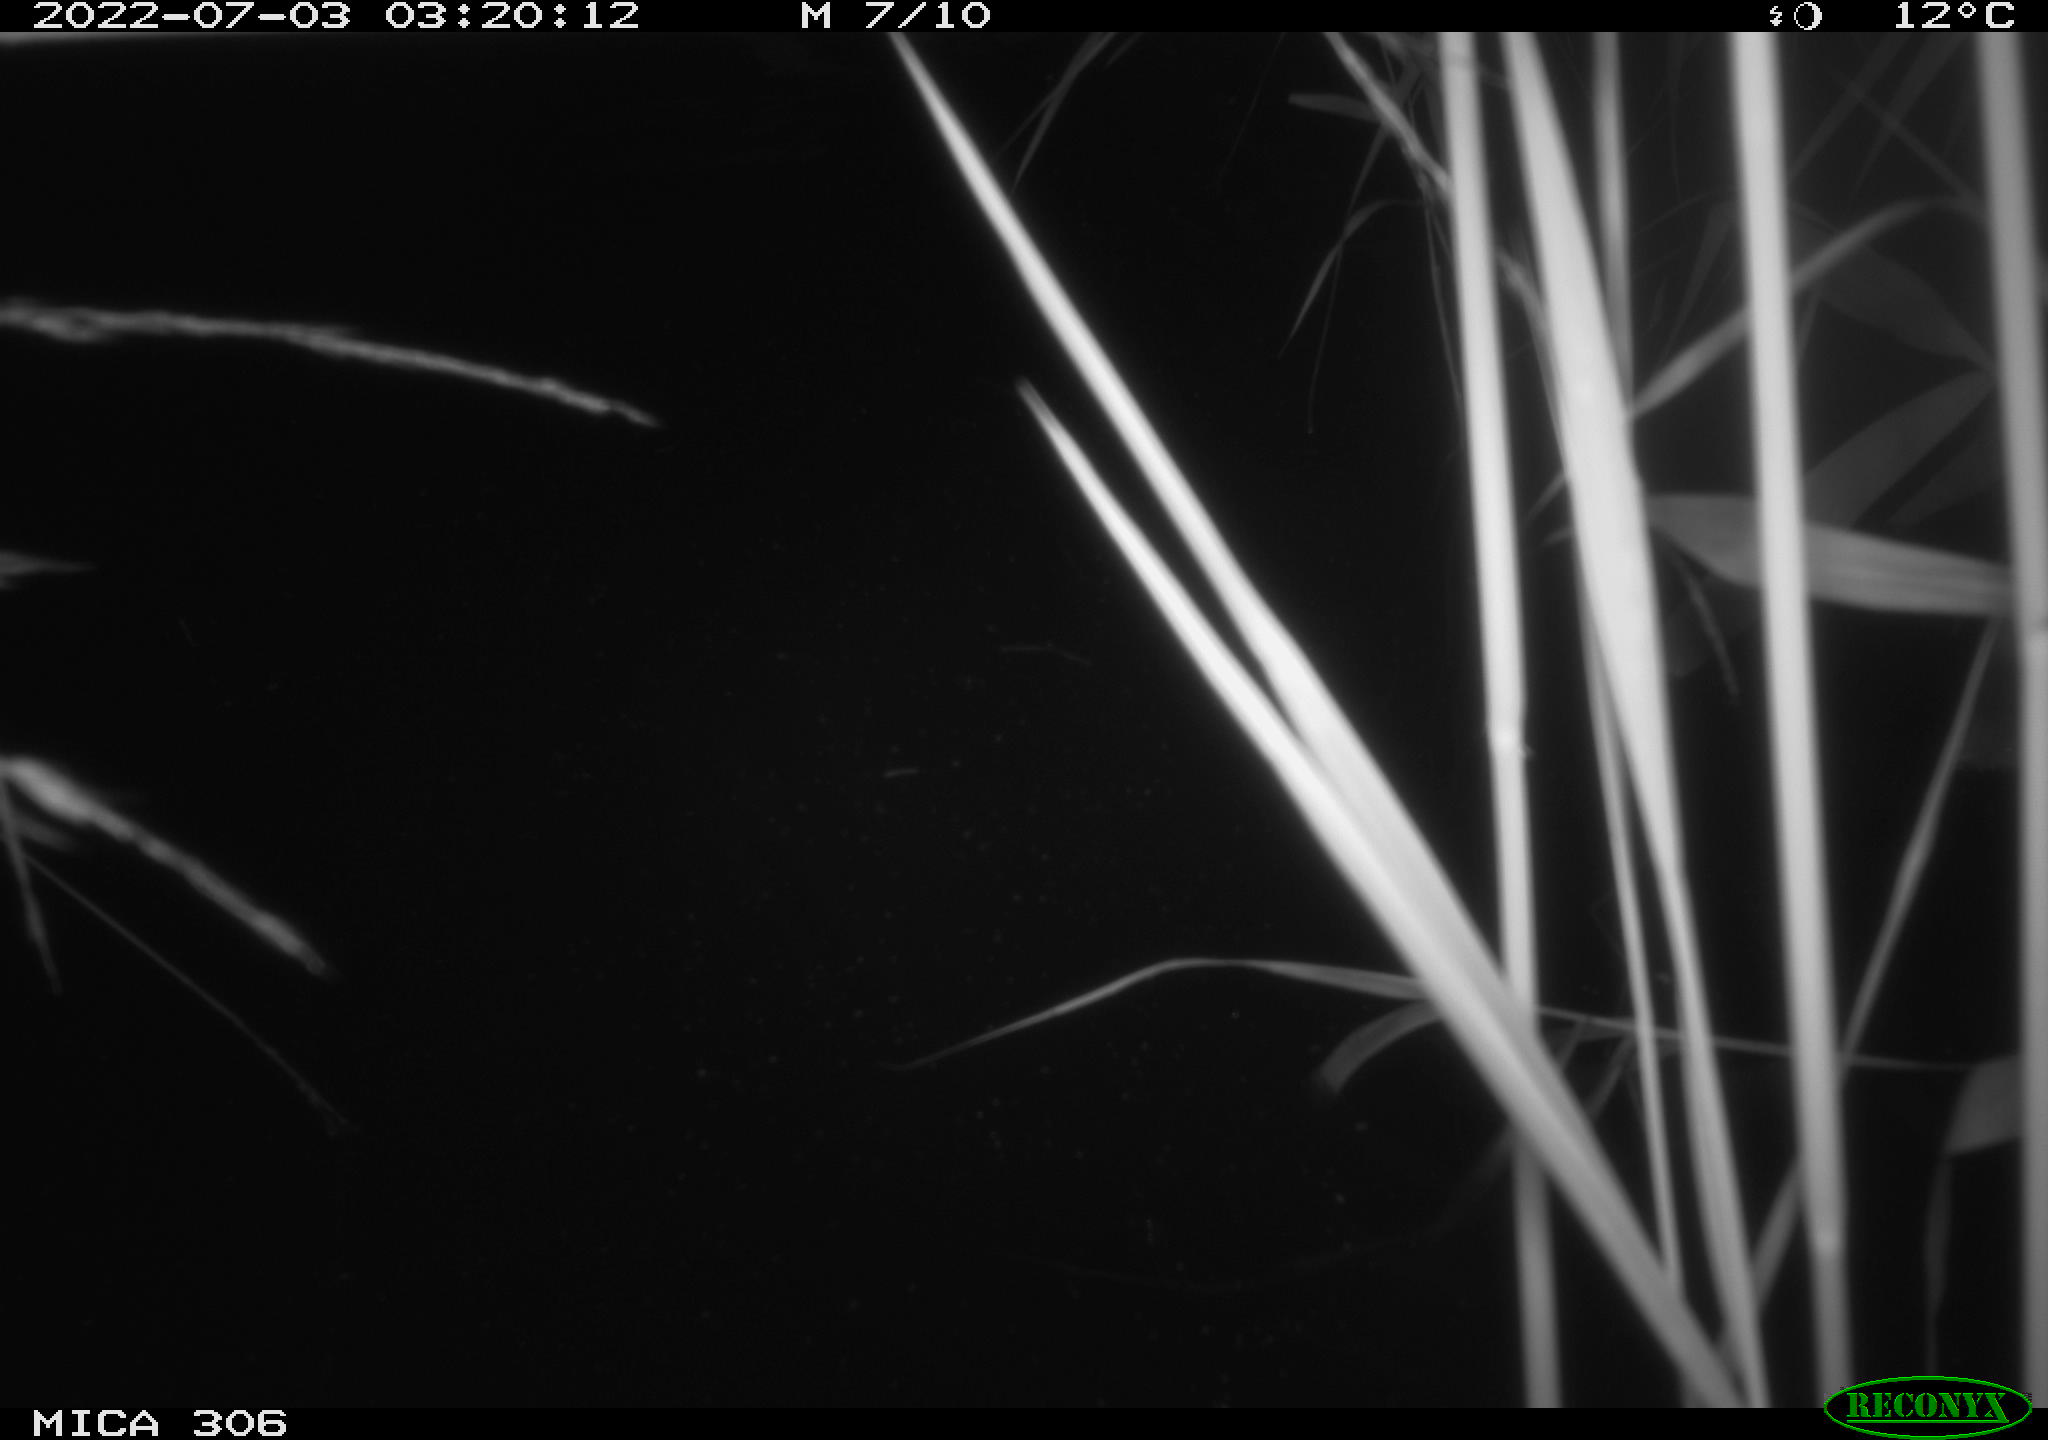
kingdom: Animalia
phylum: Chordata
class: Mammalia
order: Rodentia
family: Cricetidae
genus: Ondatra
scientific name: Ondatra zibethicus
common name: Muskrat
